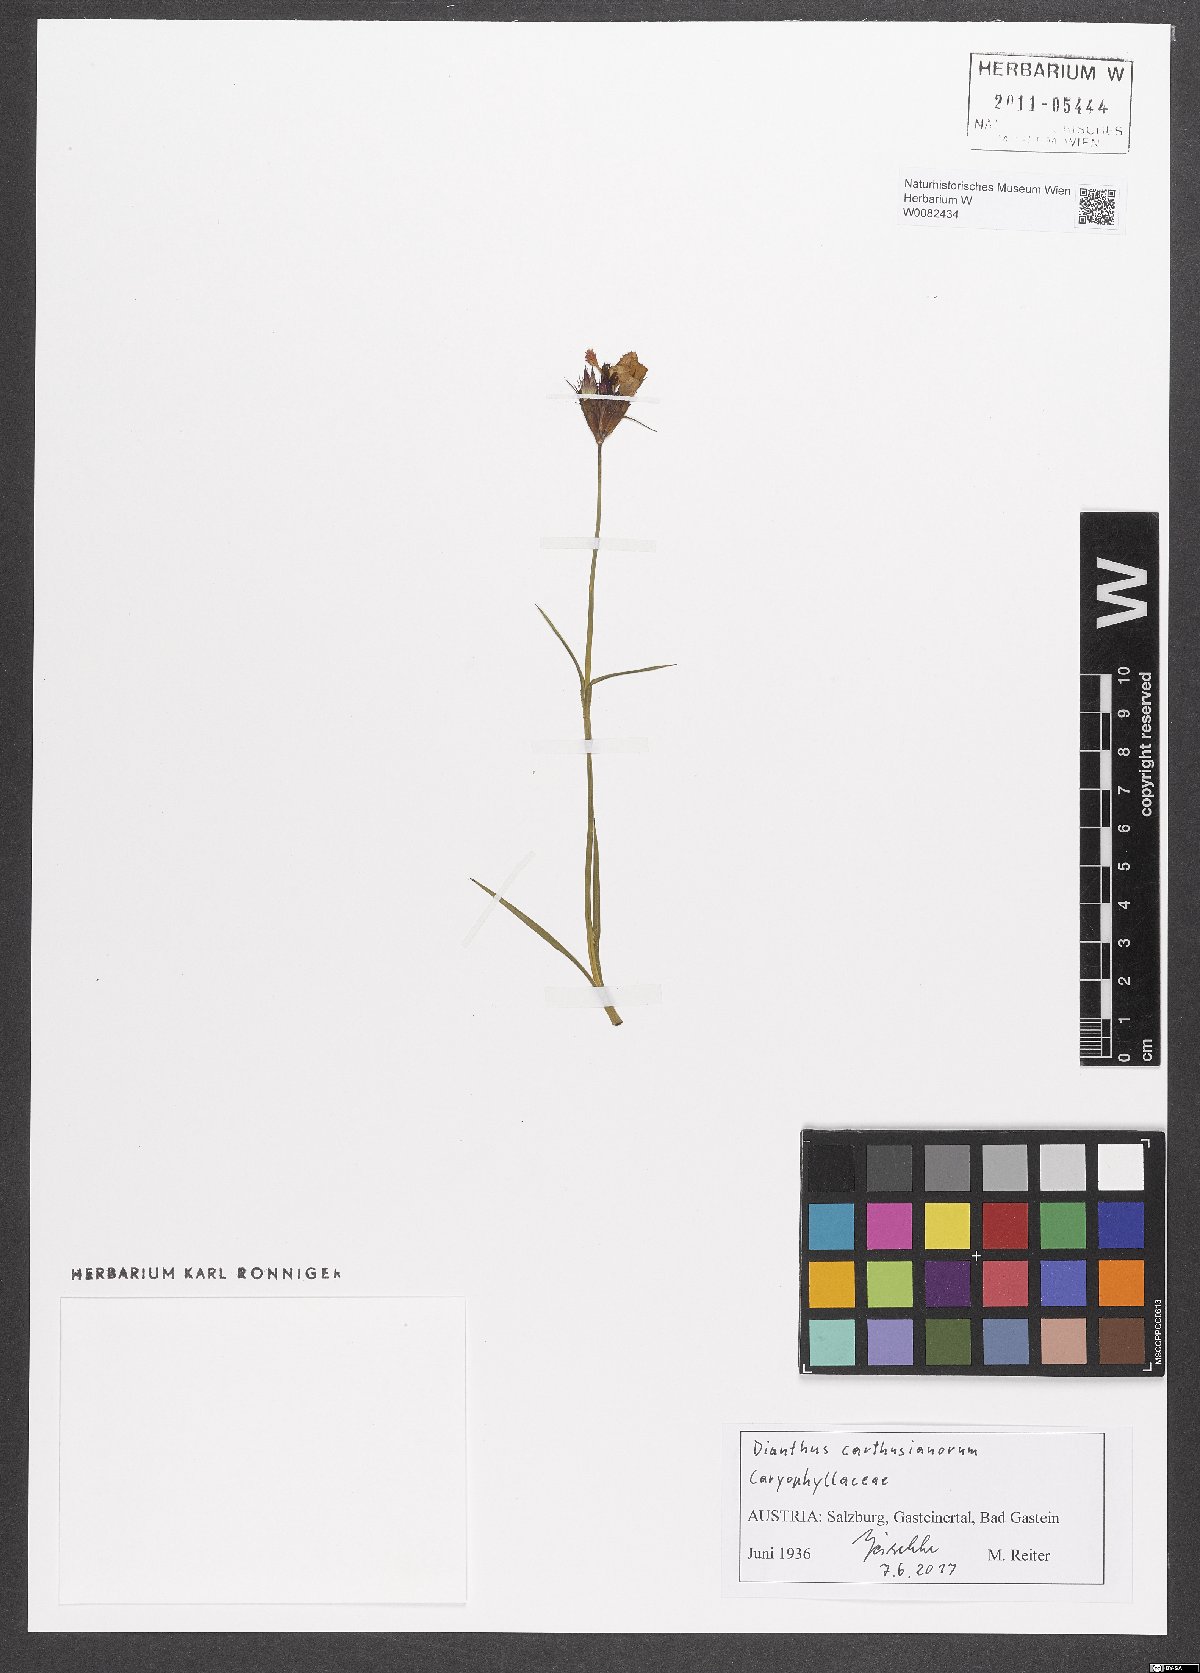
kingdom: Plantae
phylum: Tracheophyta
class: Magnoliopsida
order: Caryophyllales
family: Caryophyllaceae
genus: Dianthus
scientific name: Dianthus carthusianorum
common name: Carthusian pink
